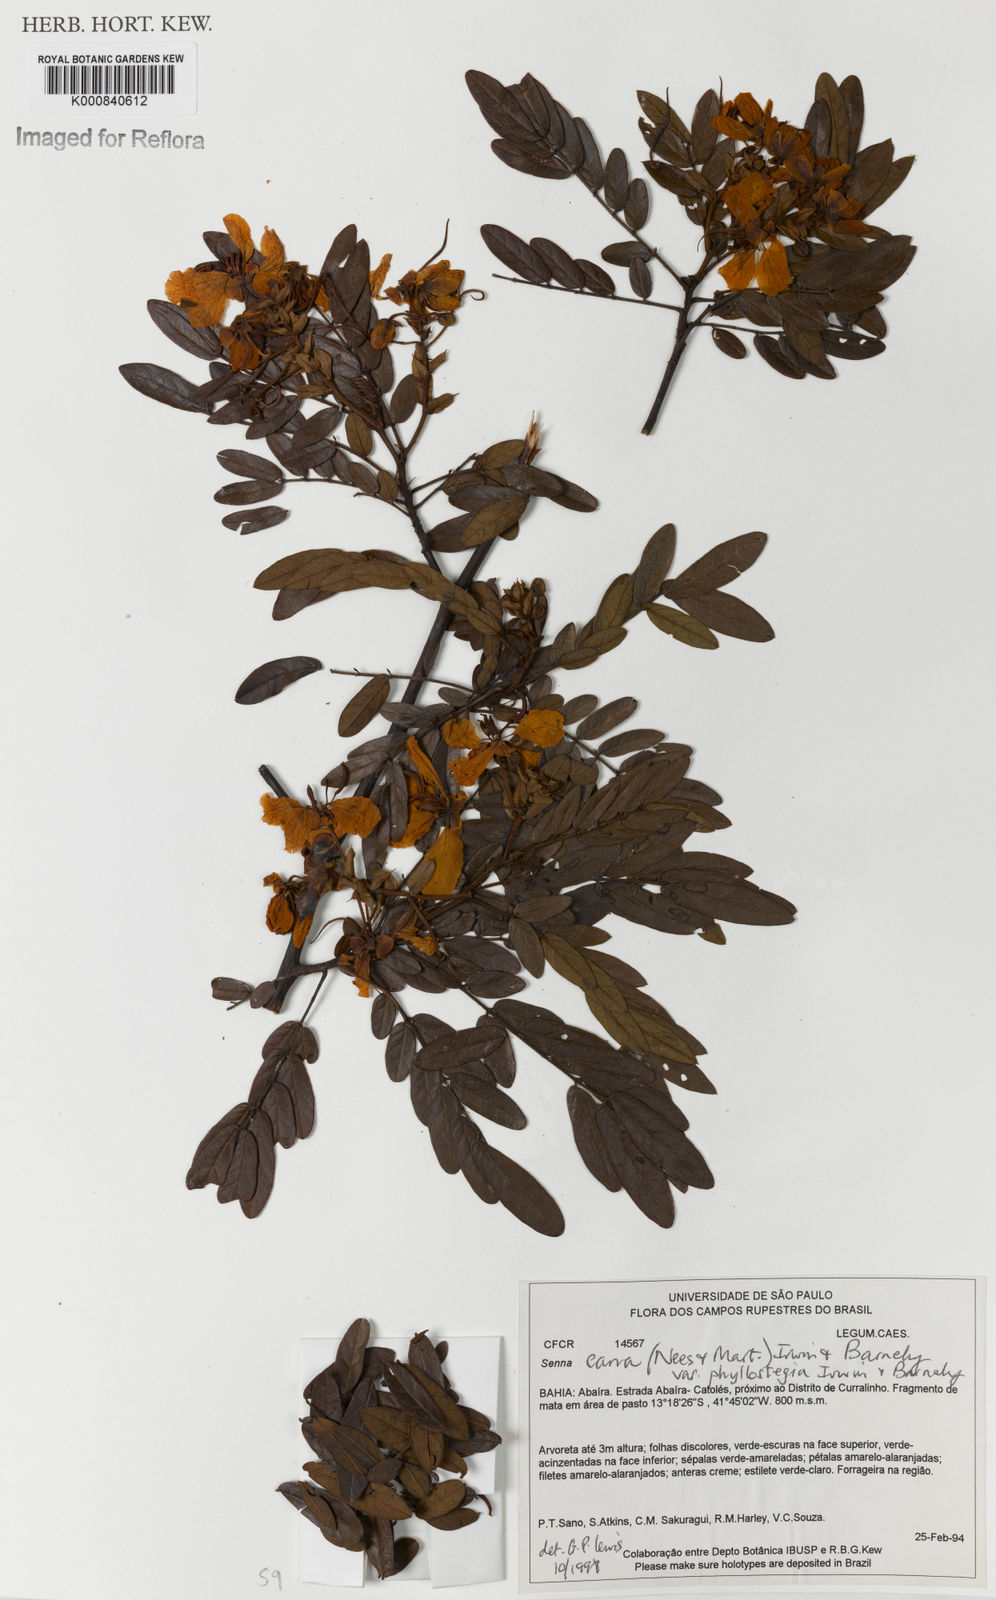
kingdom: Plantae
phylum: Tracheophyta
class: Magnoliopsida
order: Fabales
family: Fabaceae
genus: Senna
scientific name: Senna cana
